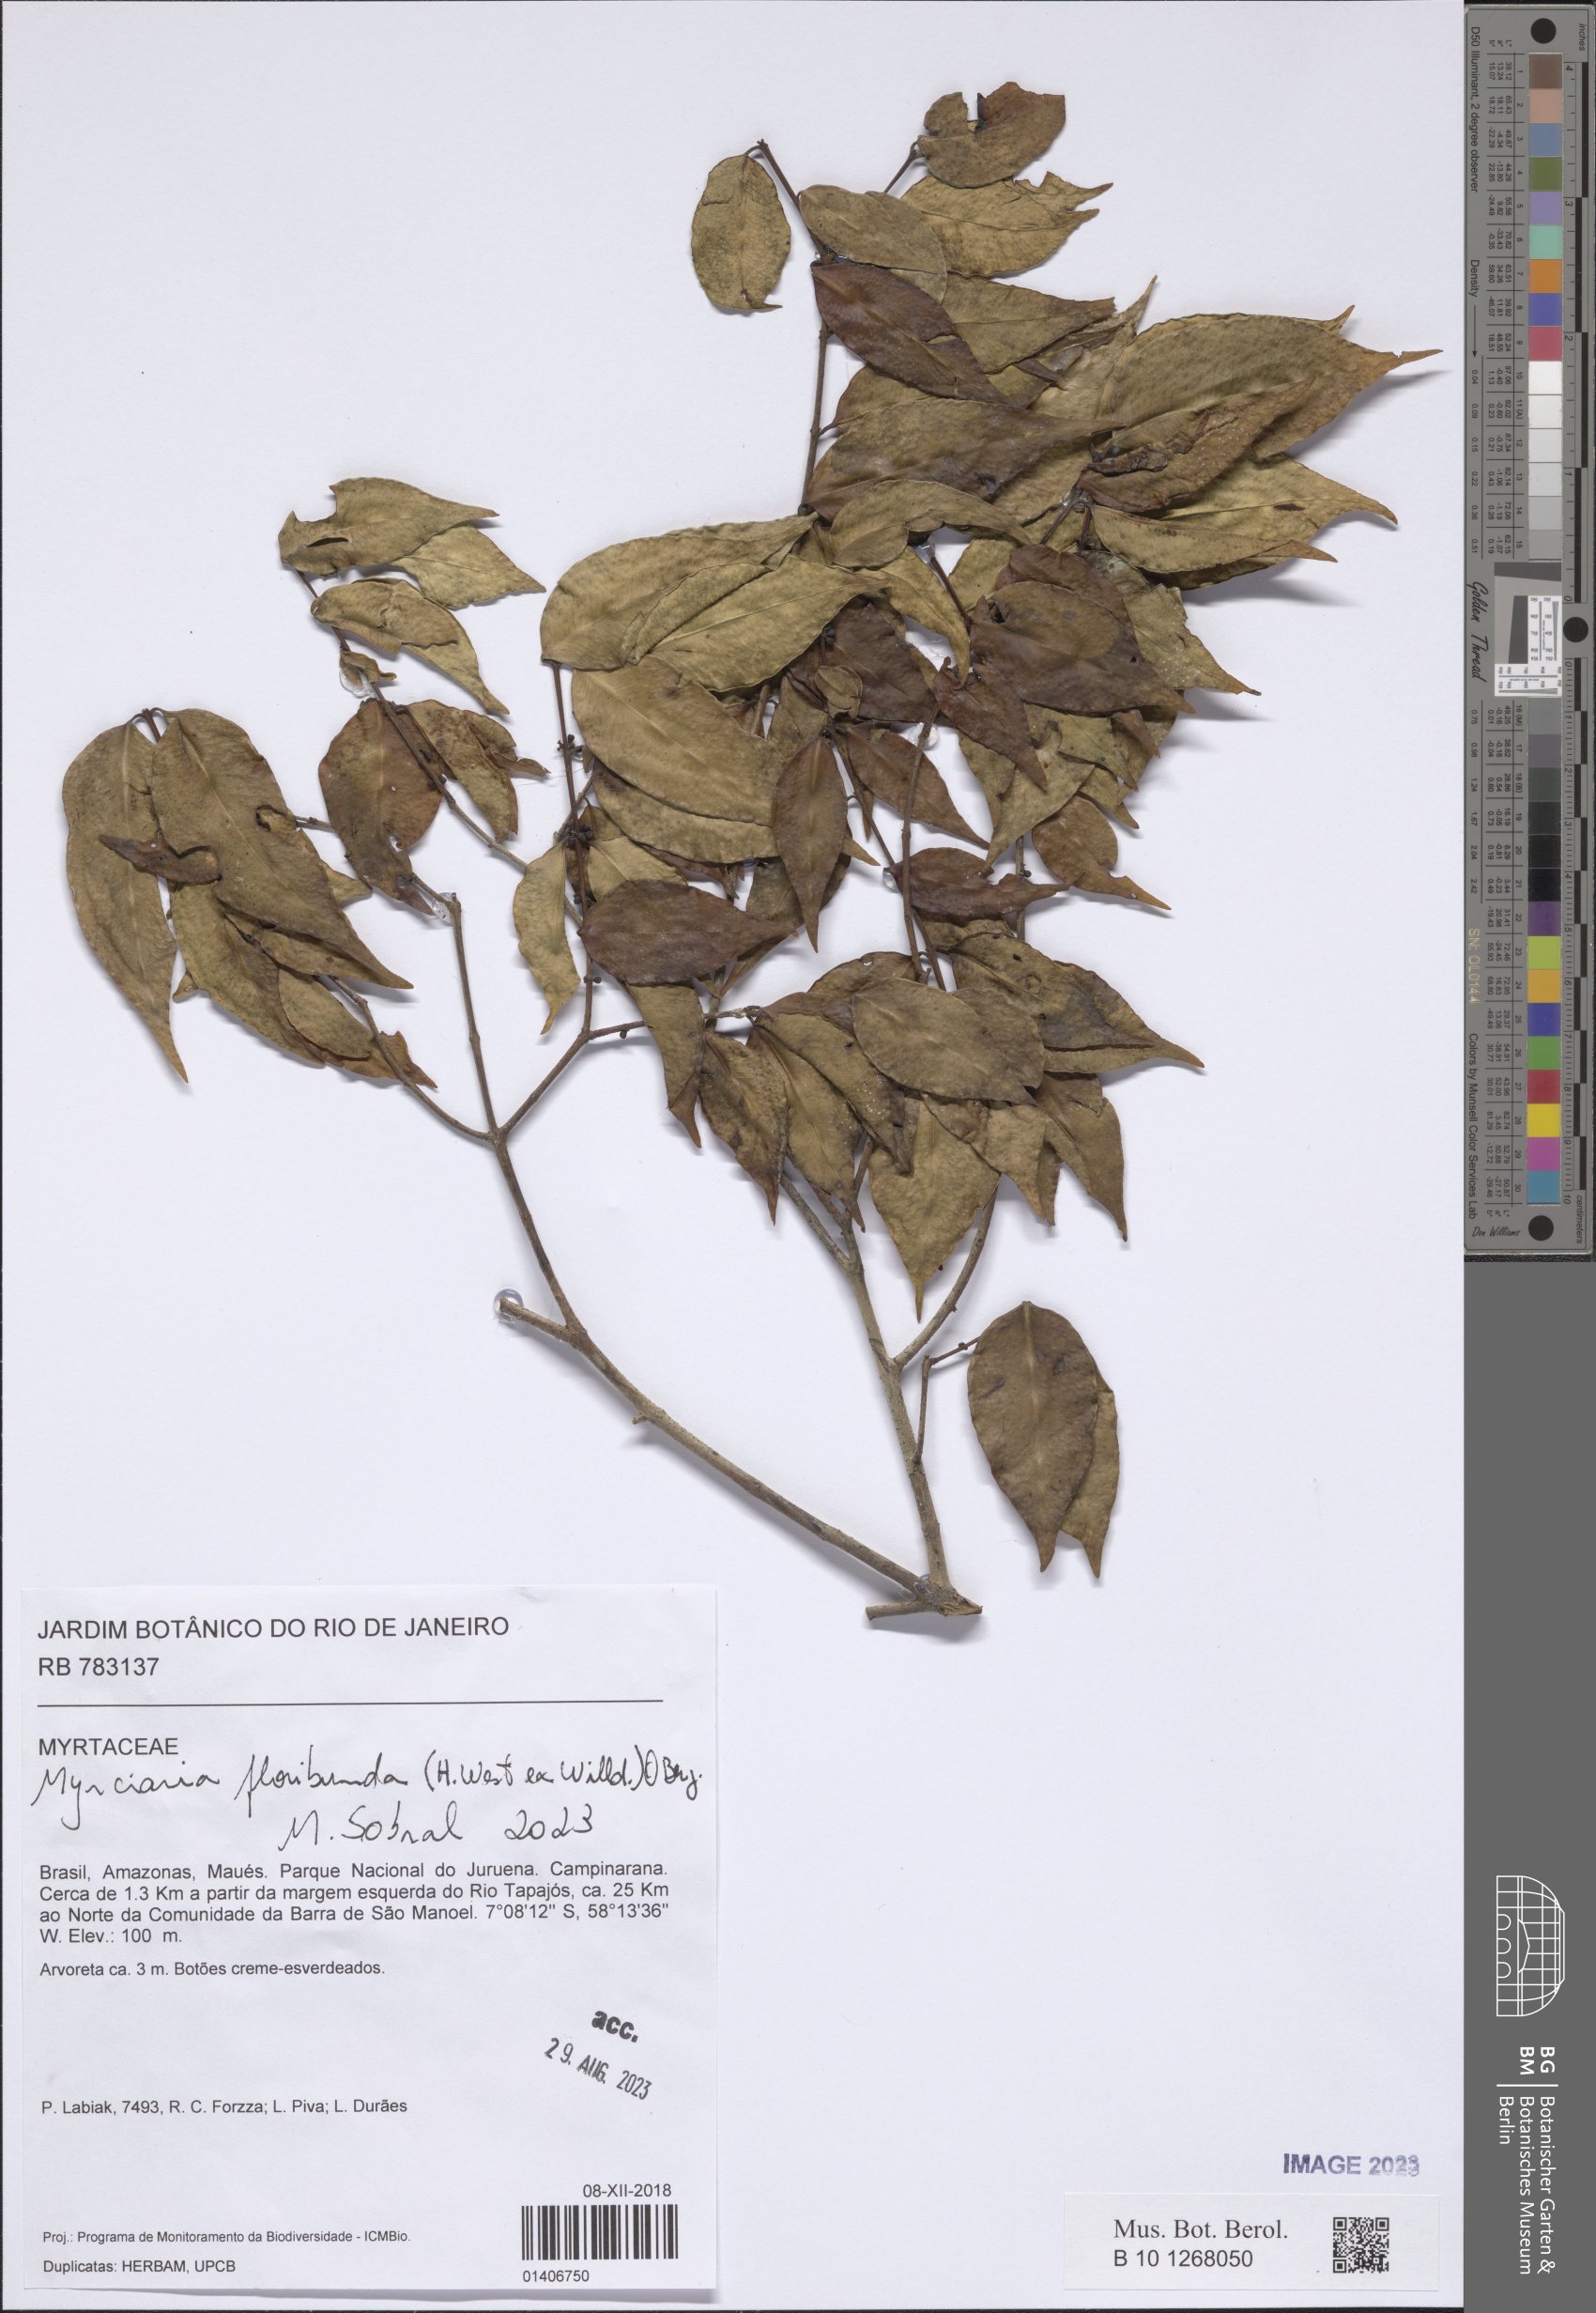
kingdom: Plantae
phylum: Tracheophyta
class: Magnoliopsida
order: Myrtales
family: Myrtaceae
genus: Myrciaria
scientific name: Myrciaria floribunda
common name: Guavaberry
